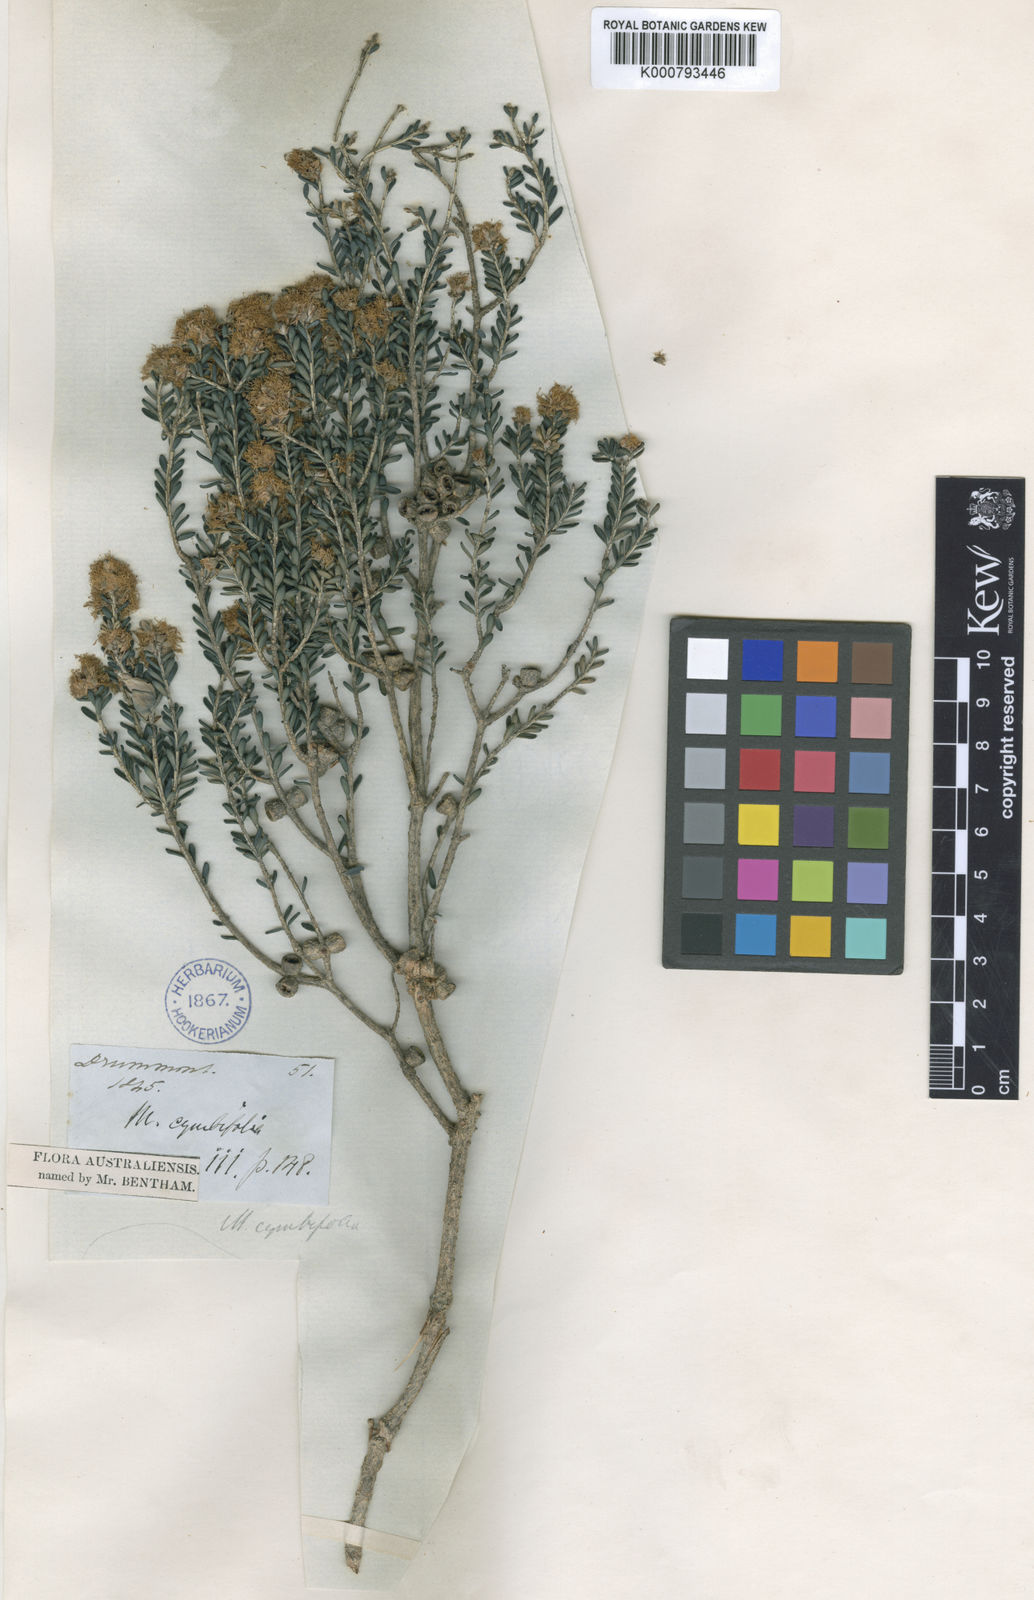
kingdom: Plantae
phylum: Tracheophyta
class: Magnoliopsida
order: Myrtales
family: Myrtaceae
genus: Melaleuca
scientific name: Melaleuca halmaturorum
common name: Coastal paper-bark
